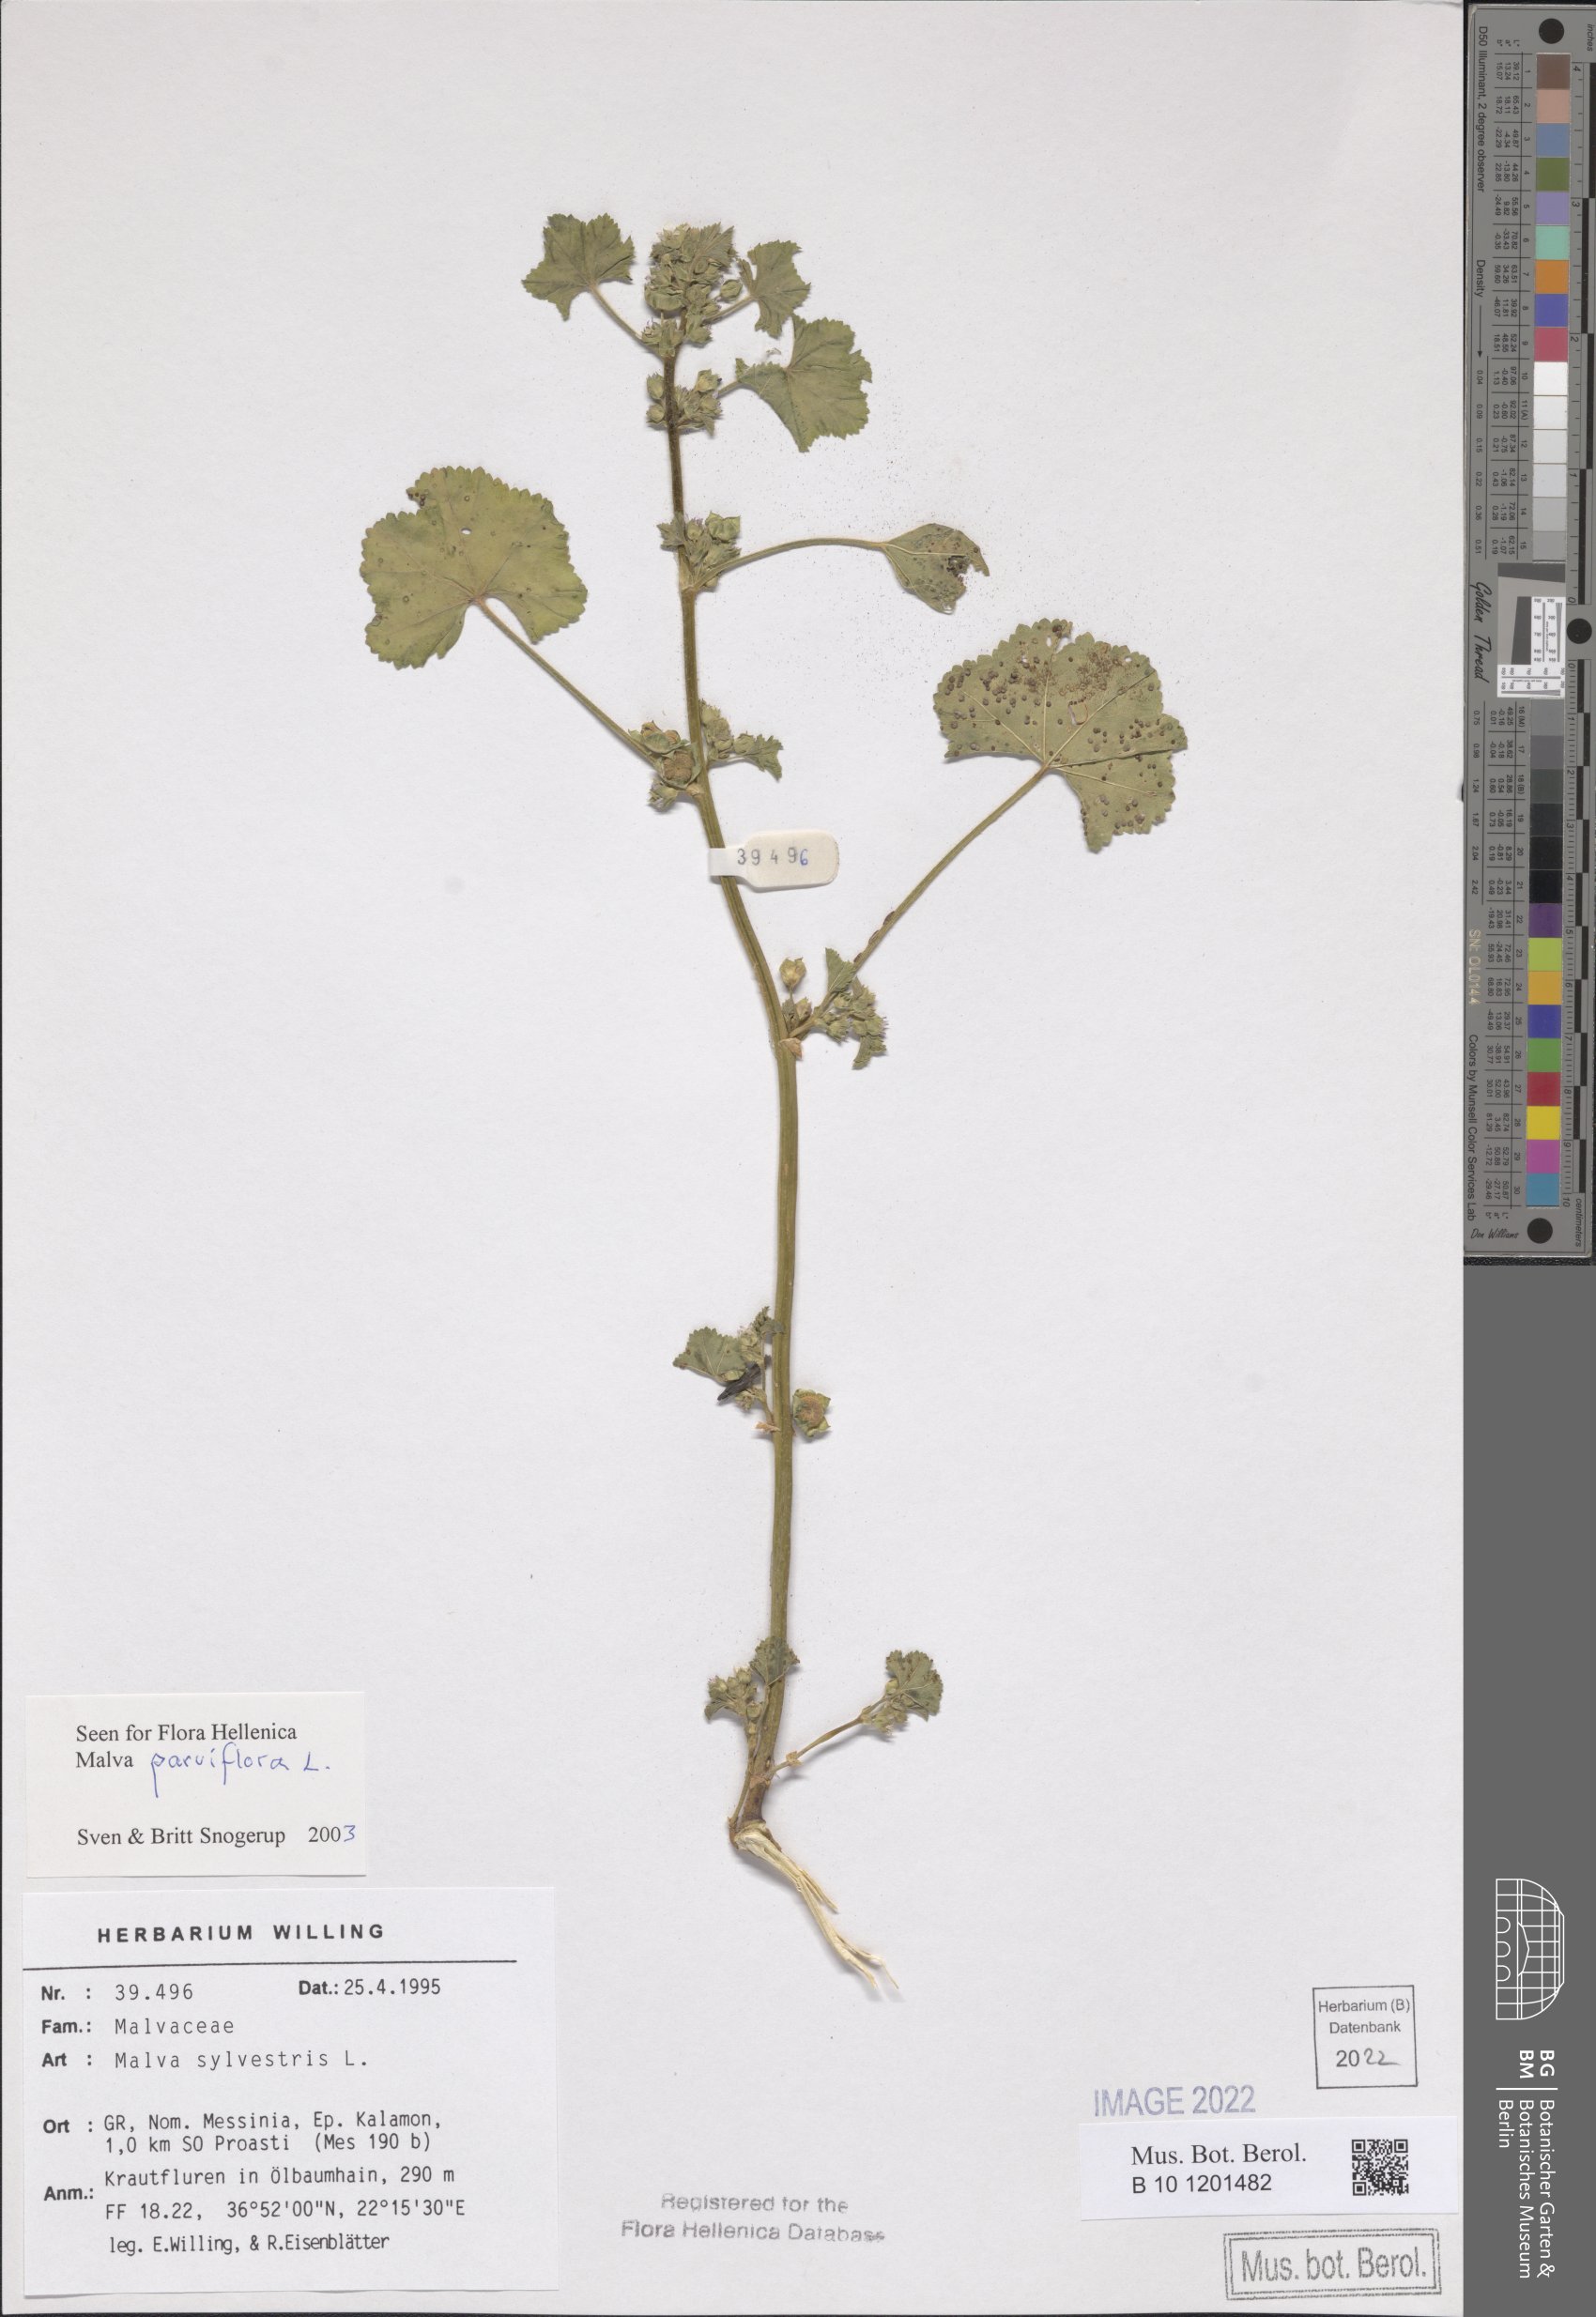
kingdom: Plantae
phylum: Tracheophyta
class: Magnoliopsida
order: Malvales
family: Malvaceae
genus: Malva
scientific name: Malva parviflora
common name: Least mallow
